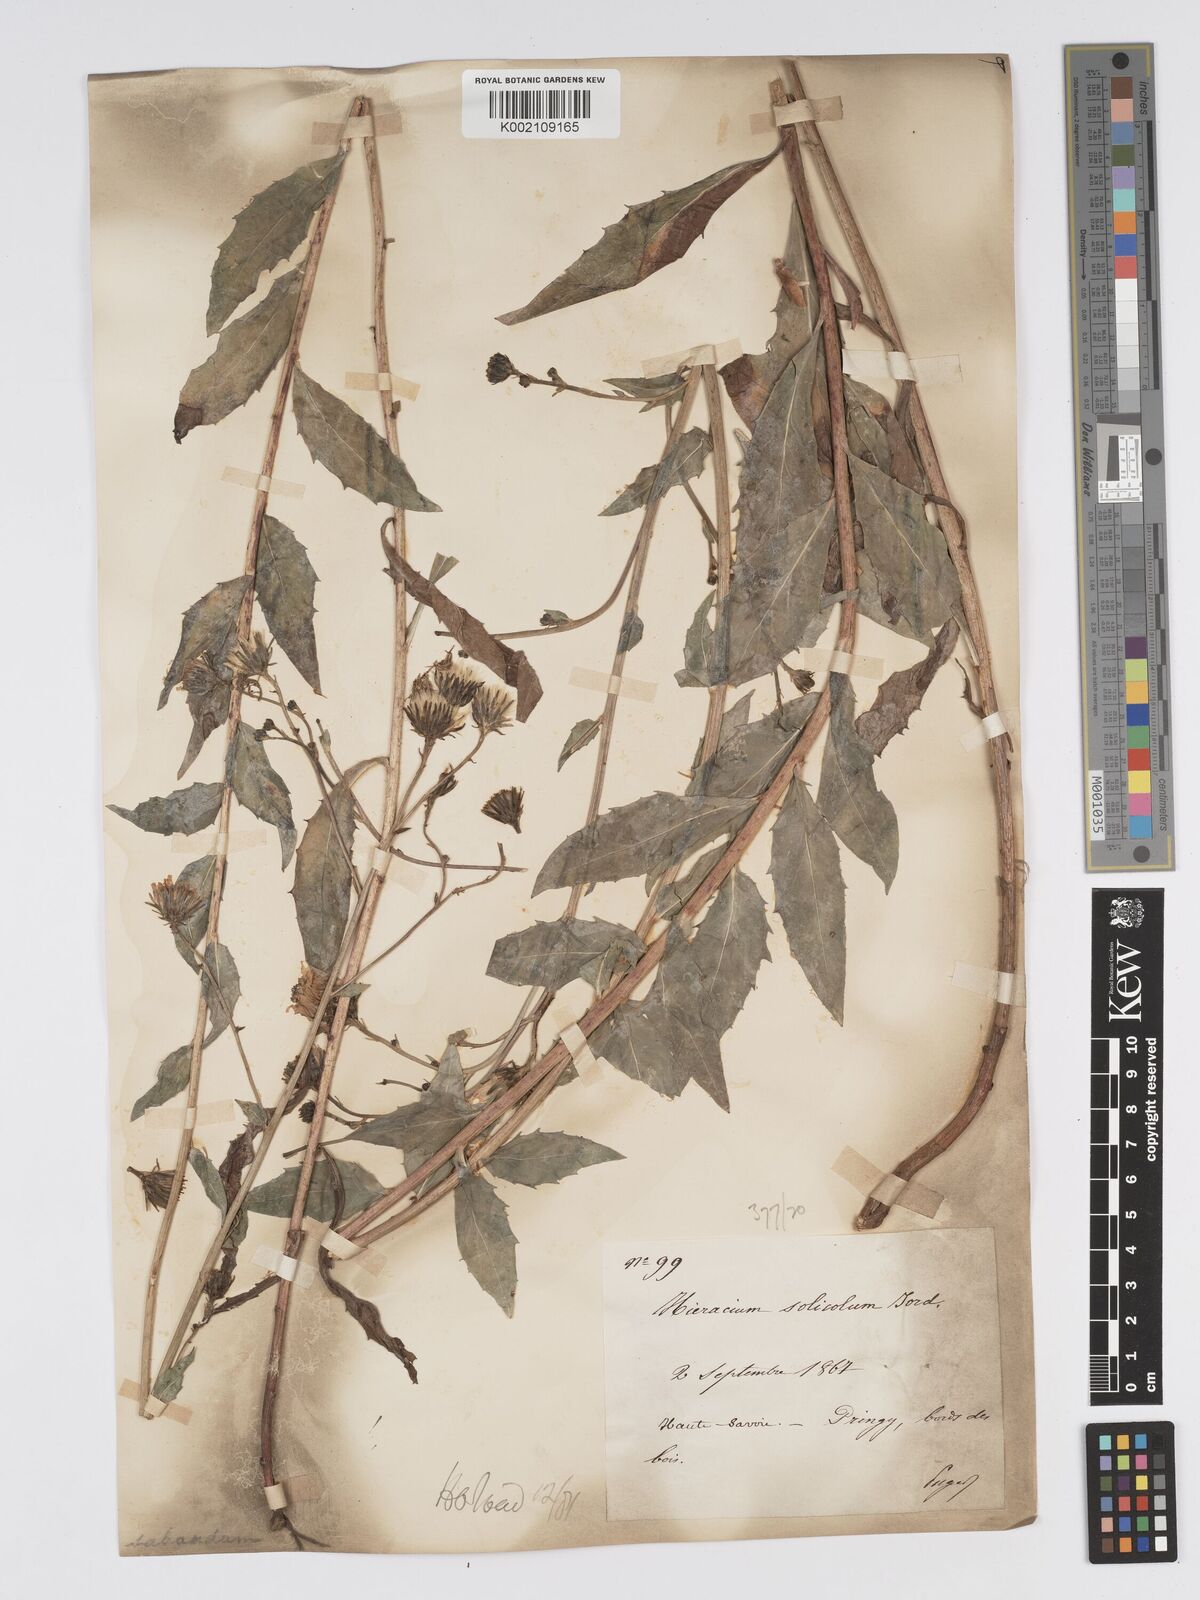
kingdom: Plantae
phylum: Tracheophyta
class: Magnoliopsida
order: Asterales
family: Asteraceae
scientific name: Asteraceae
